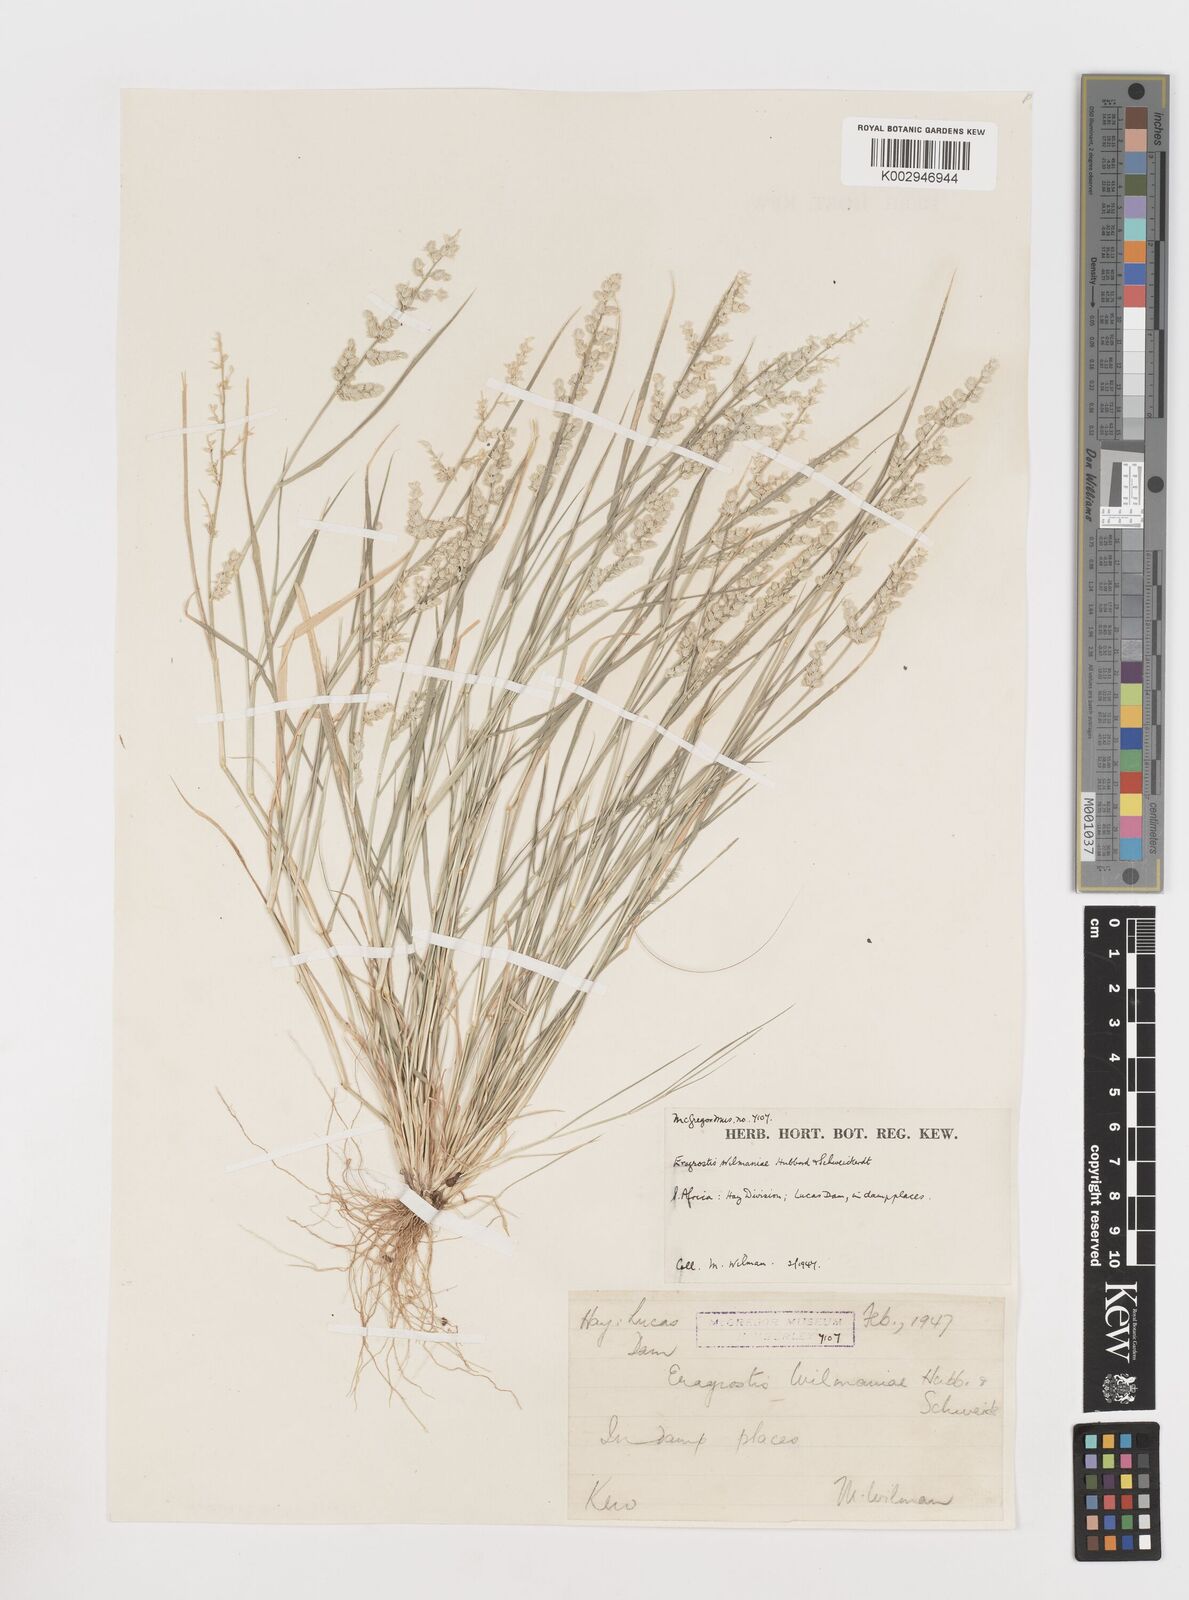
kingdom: Plantae
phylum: Tracheophyta
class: Liliopsida
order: Poales
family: Poaceae
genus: Eragrostis
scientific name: Eragrostis
